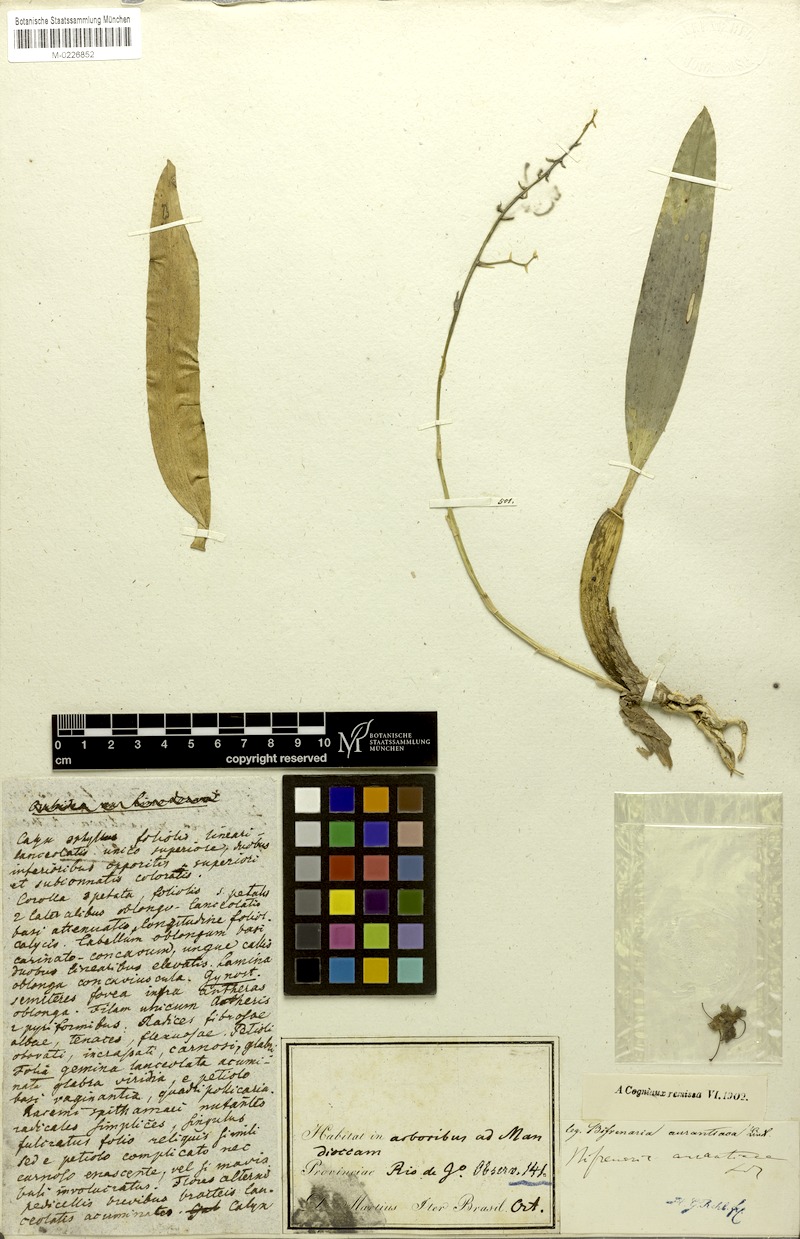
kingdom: Plantae
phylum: Tracheophyta
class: Liliopsida
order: Asparagales
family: Orchidaceae
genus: Rudolfiella
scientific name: Rudolfiella aurantiaca
